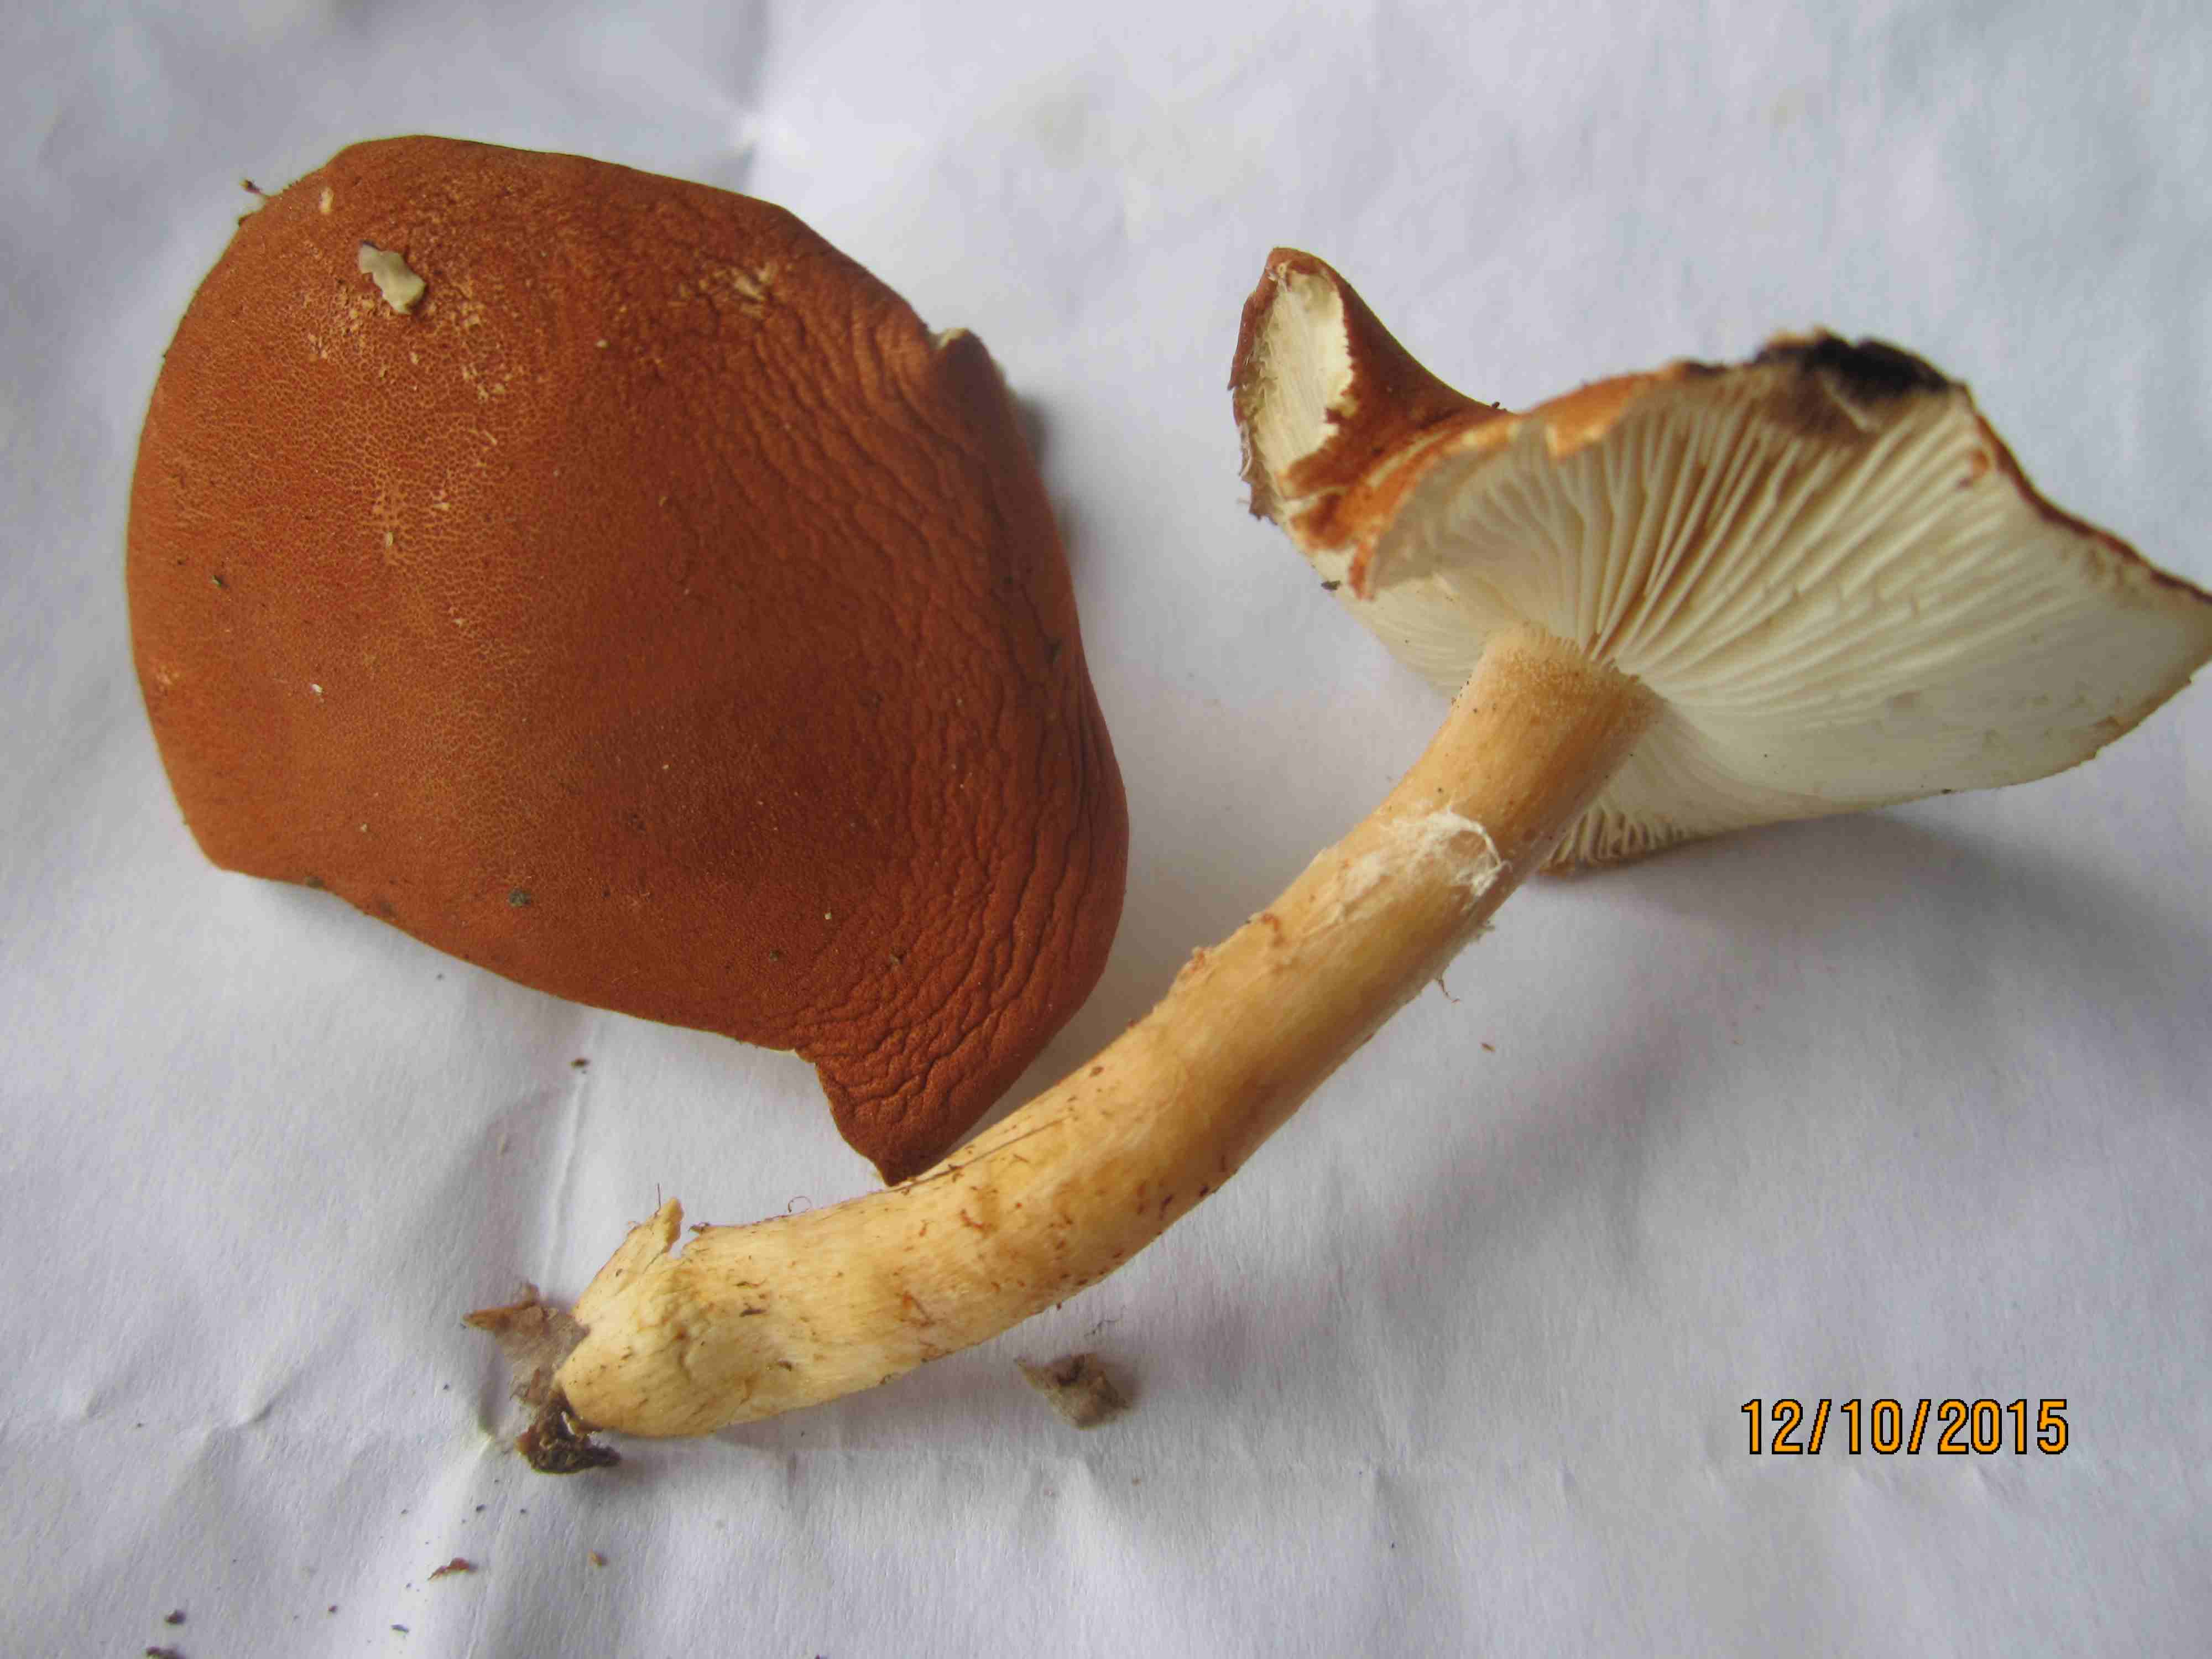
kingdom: Fungi
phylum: Basidiomycota
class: Agaricomycetes
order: Agaricales
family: Agaricaceae
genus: Cystodermella
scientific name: Cystodermella cinnabarina
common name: cinnober-grynhat
